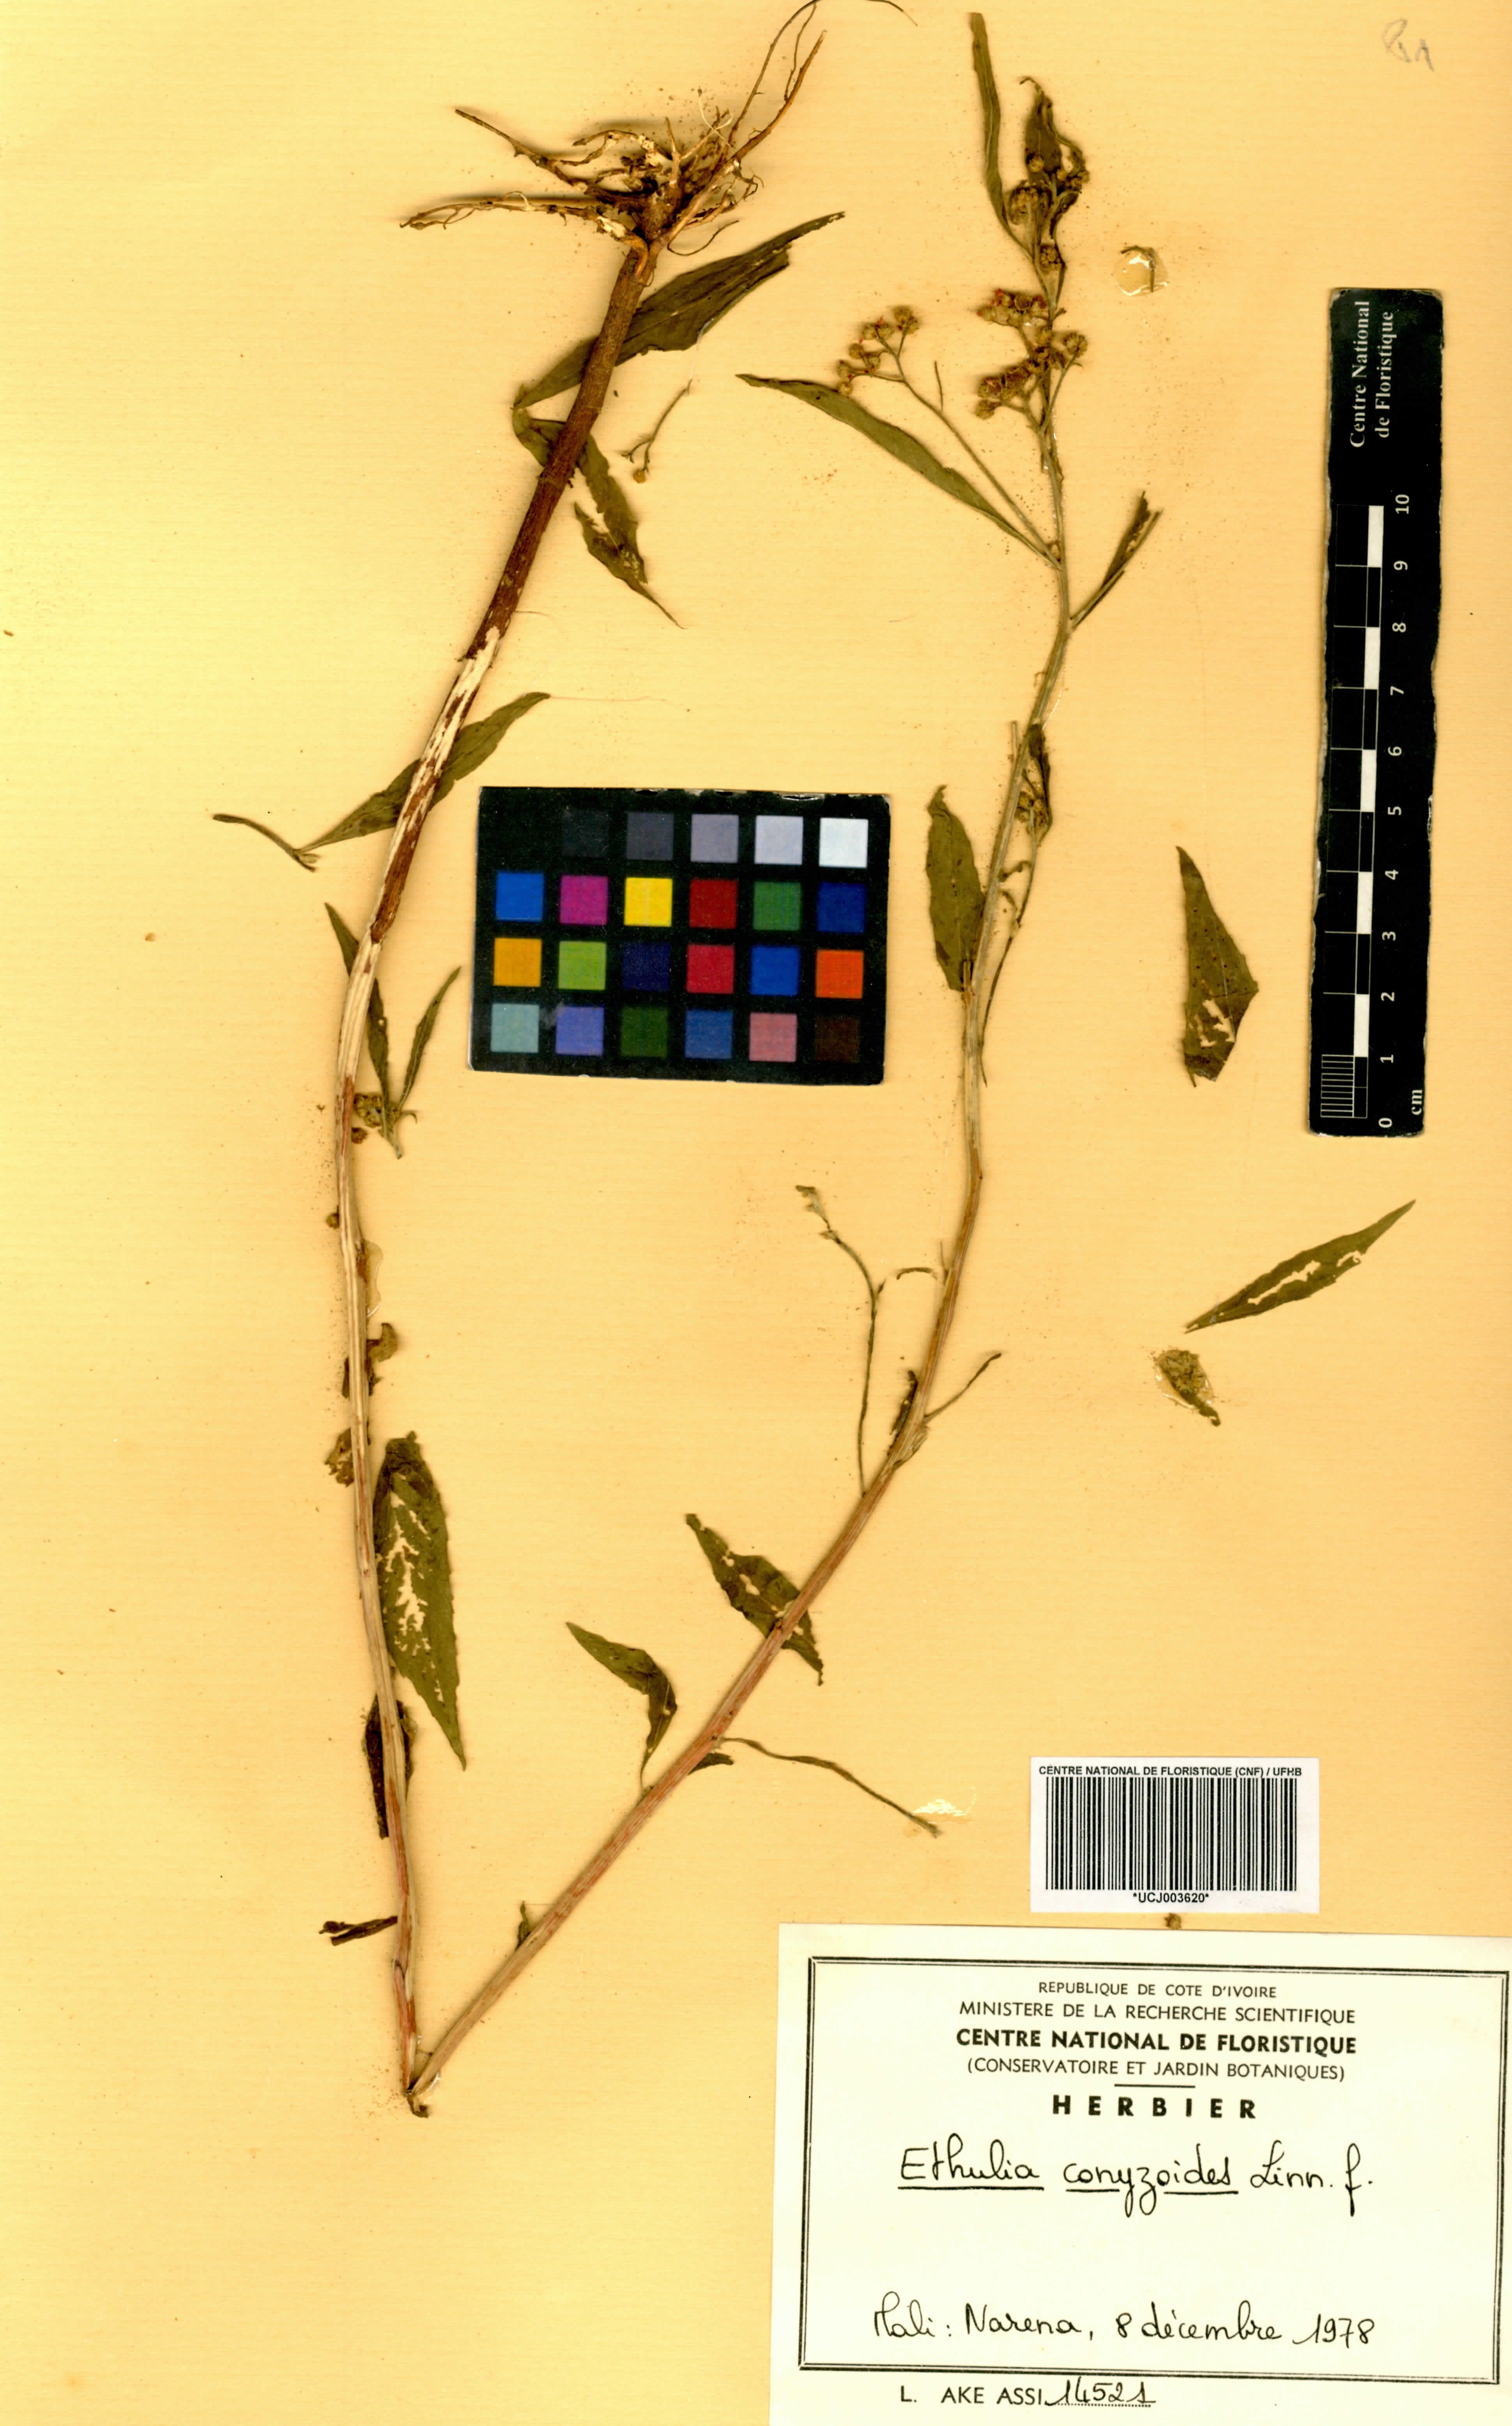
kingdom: Plantae
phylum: Tracheophyta
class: Magnoliopsida
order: Asterales
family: Asteraceae
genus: Ethulia
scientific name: Ethulia conyzoides
